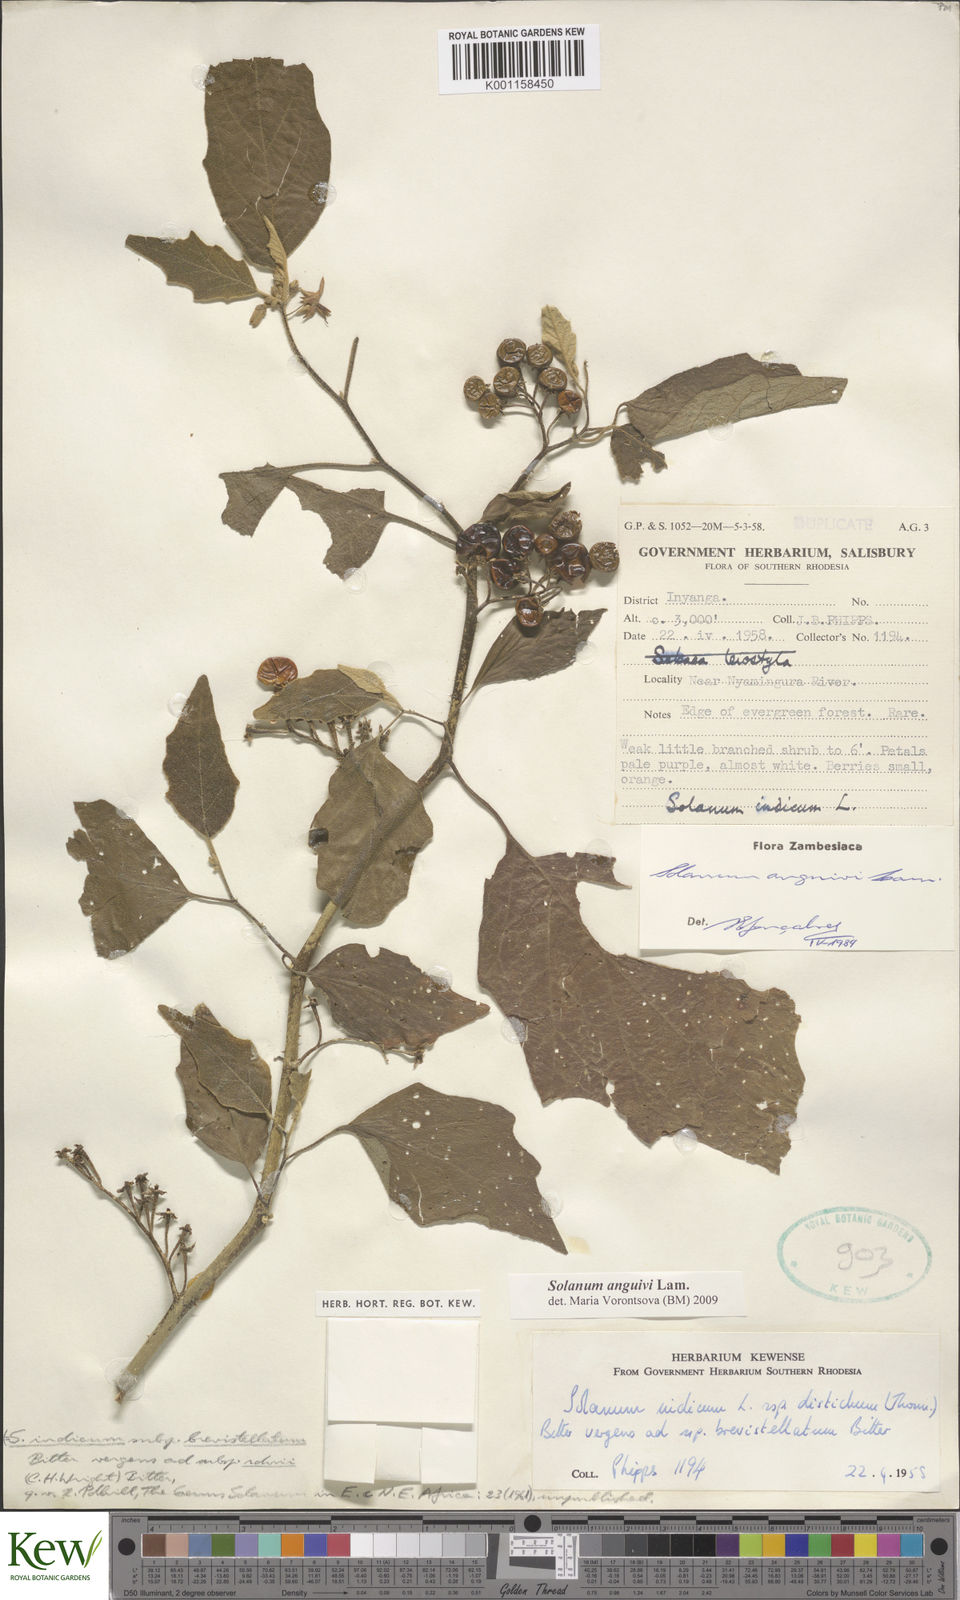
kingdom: Plantae
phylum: Tracheophyta
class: Magnoliopsida
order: Solanales
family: Solanaceae
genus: Solanum
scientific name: Solanum anguivi
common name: Forest bitterberry
